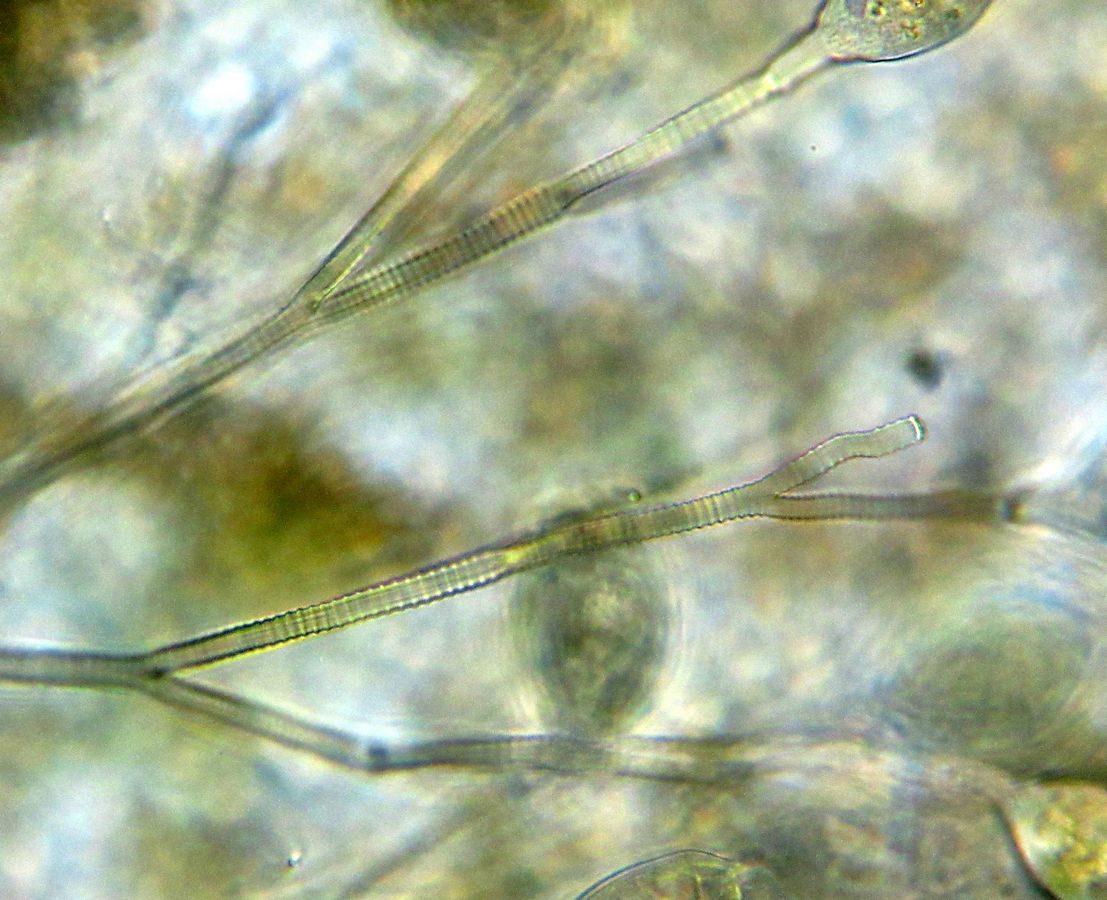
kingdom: Chromista
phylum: Ciliophora
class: Oligohymenophorea
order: Peritrichida
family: Operculariidae
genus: Opercularia
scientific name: Opercularia nutans
